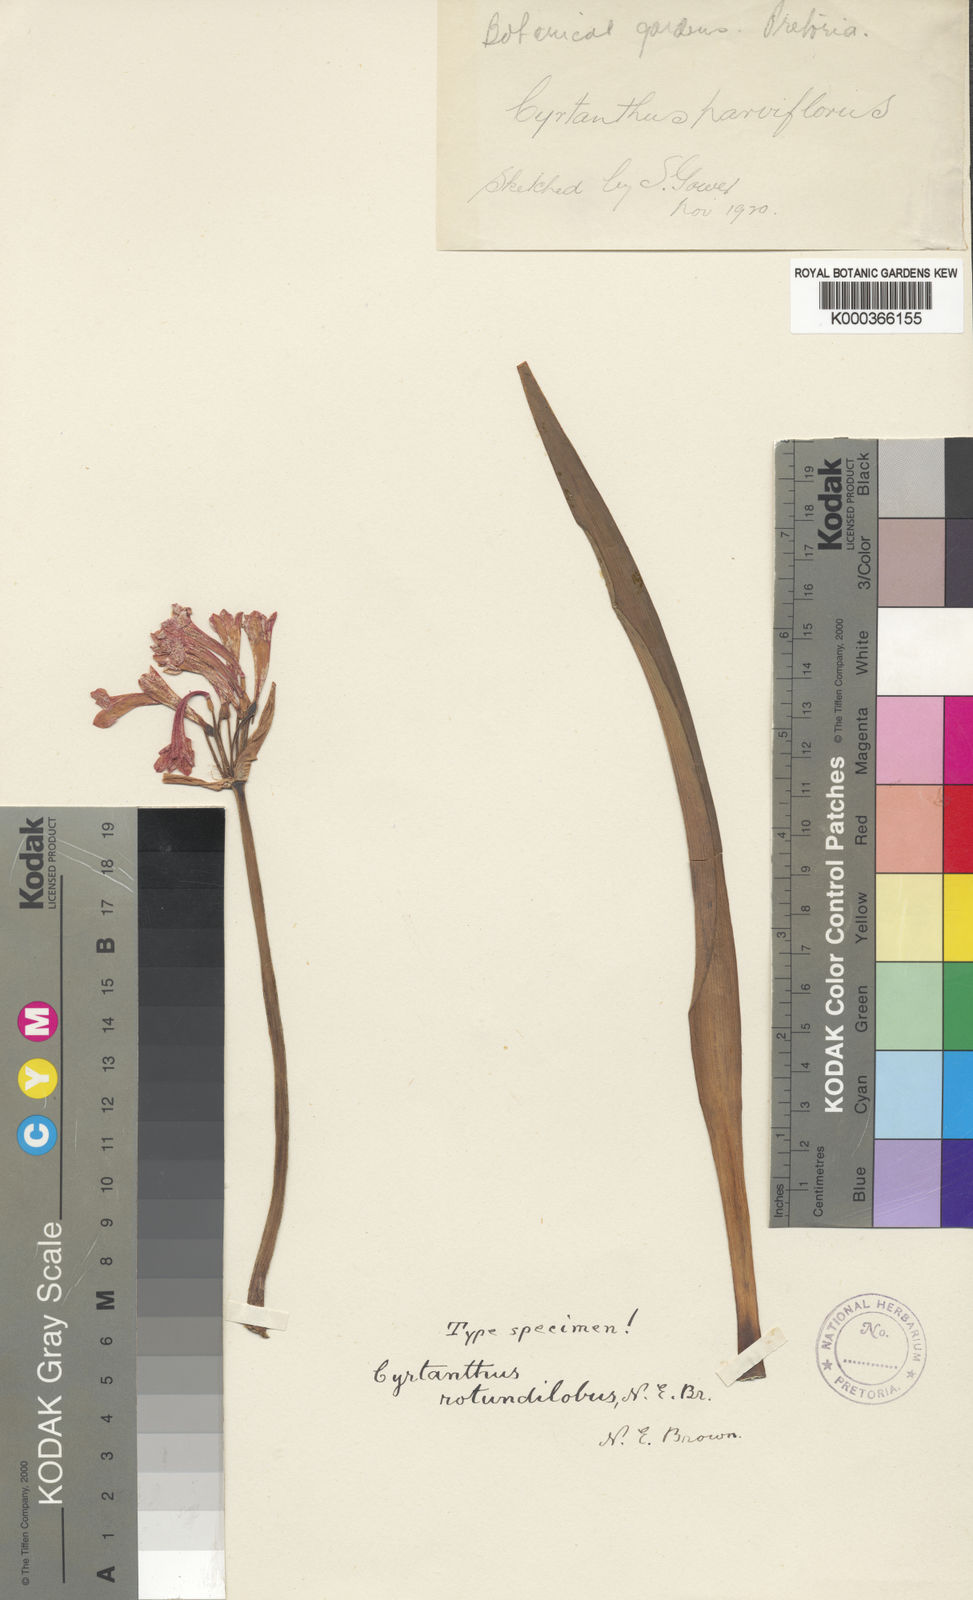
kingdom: Plantae
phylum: Tracheophyta
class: Liliopsida
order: Asparagales
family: Amaryllidaceae
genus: Cyrtanthus
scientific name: Cyrtanthus rotundilobus
